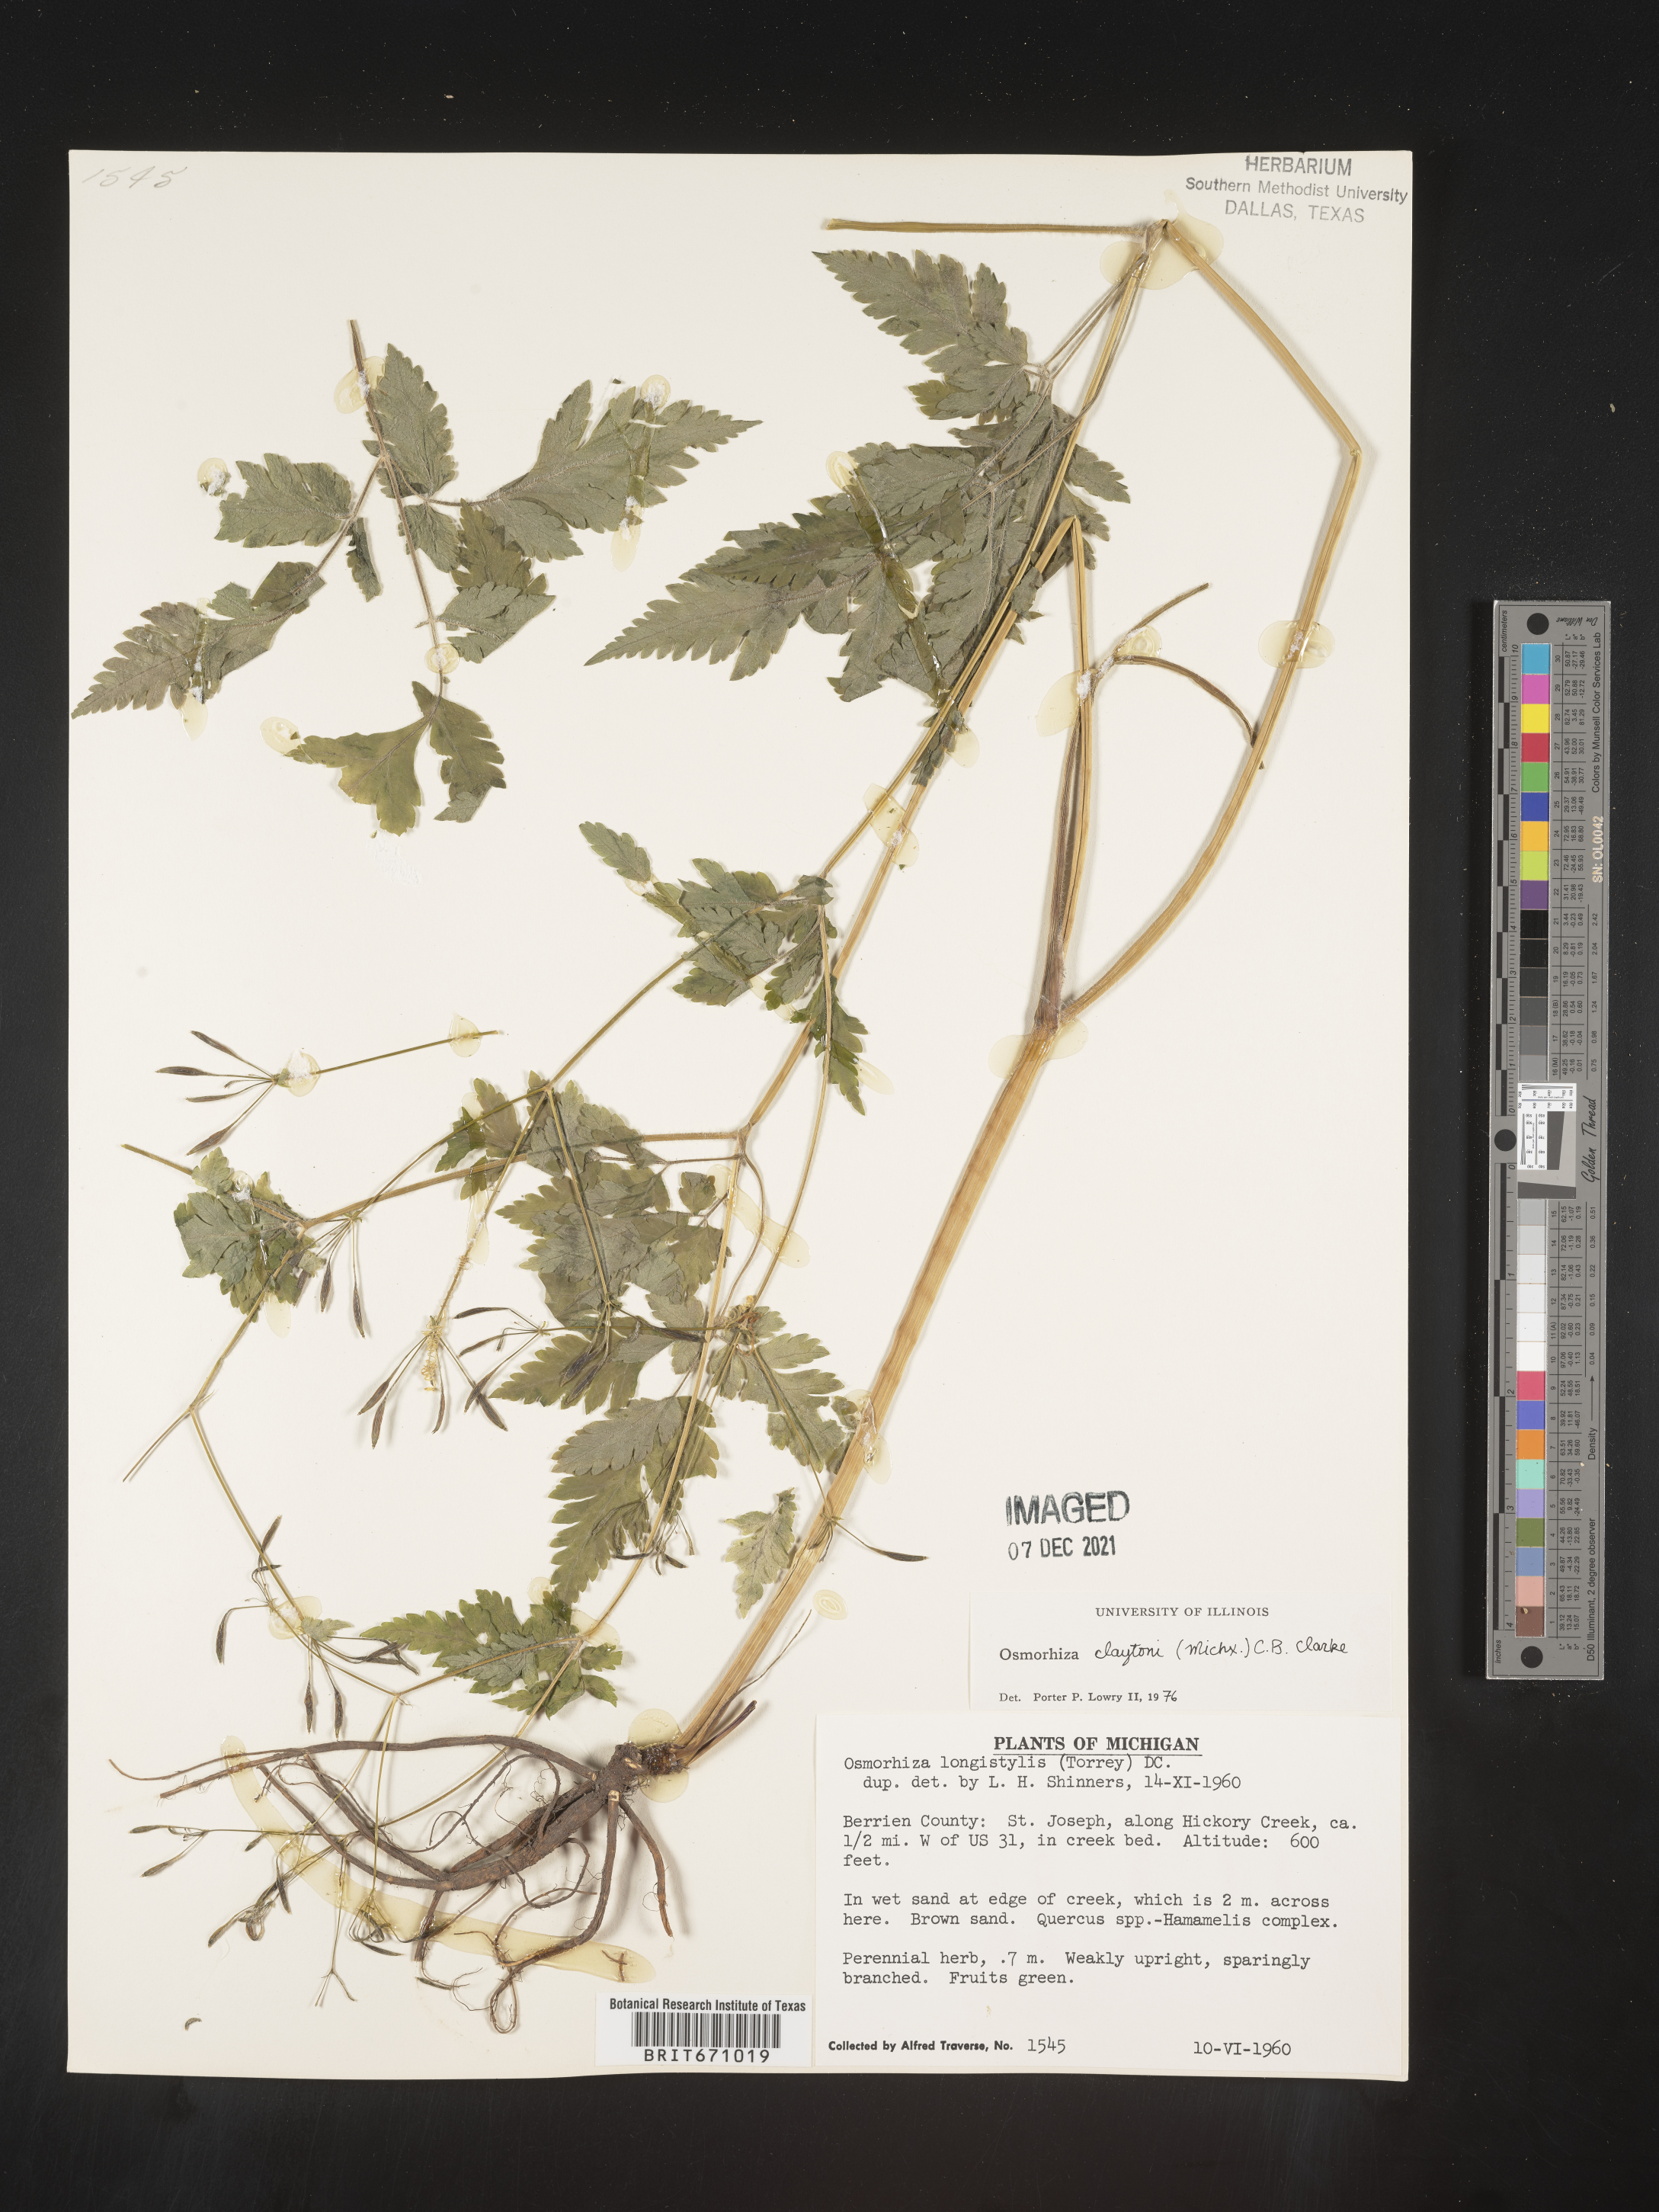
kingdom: Plantae
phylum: Tracheophyta
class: Magnoliopsida
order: Apiales
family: Apiaceae
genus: Osmorhiza
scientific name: Osmorhiza claytonii
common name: Hairy sweet cicely
